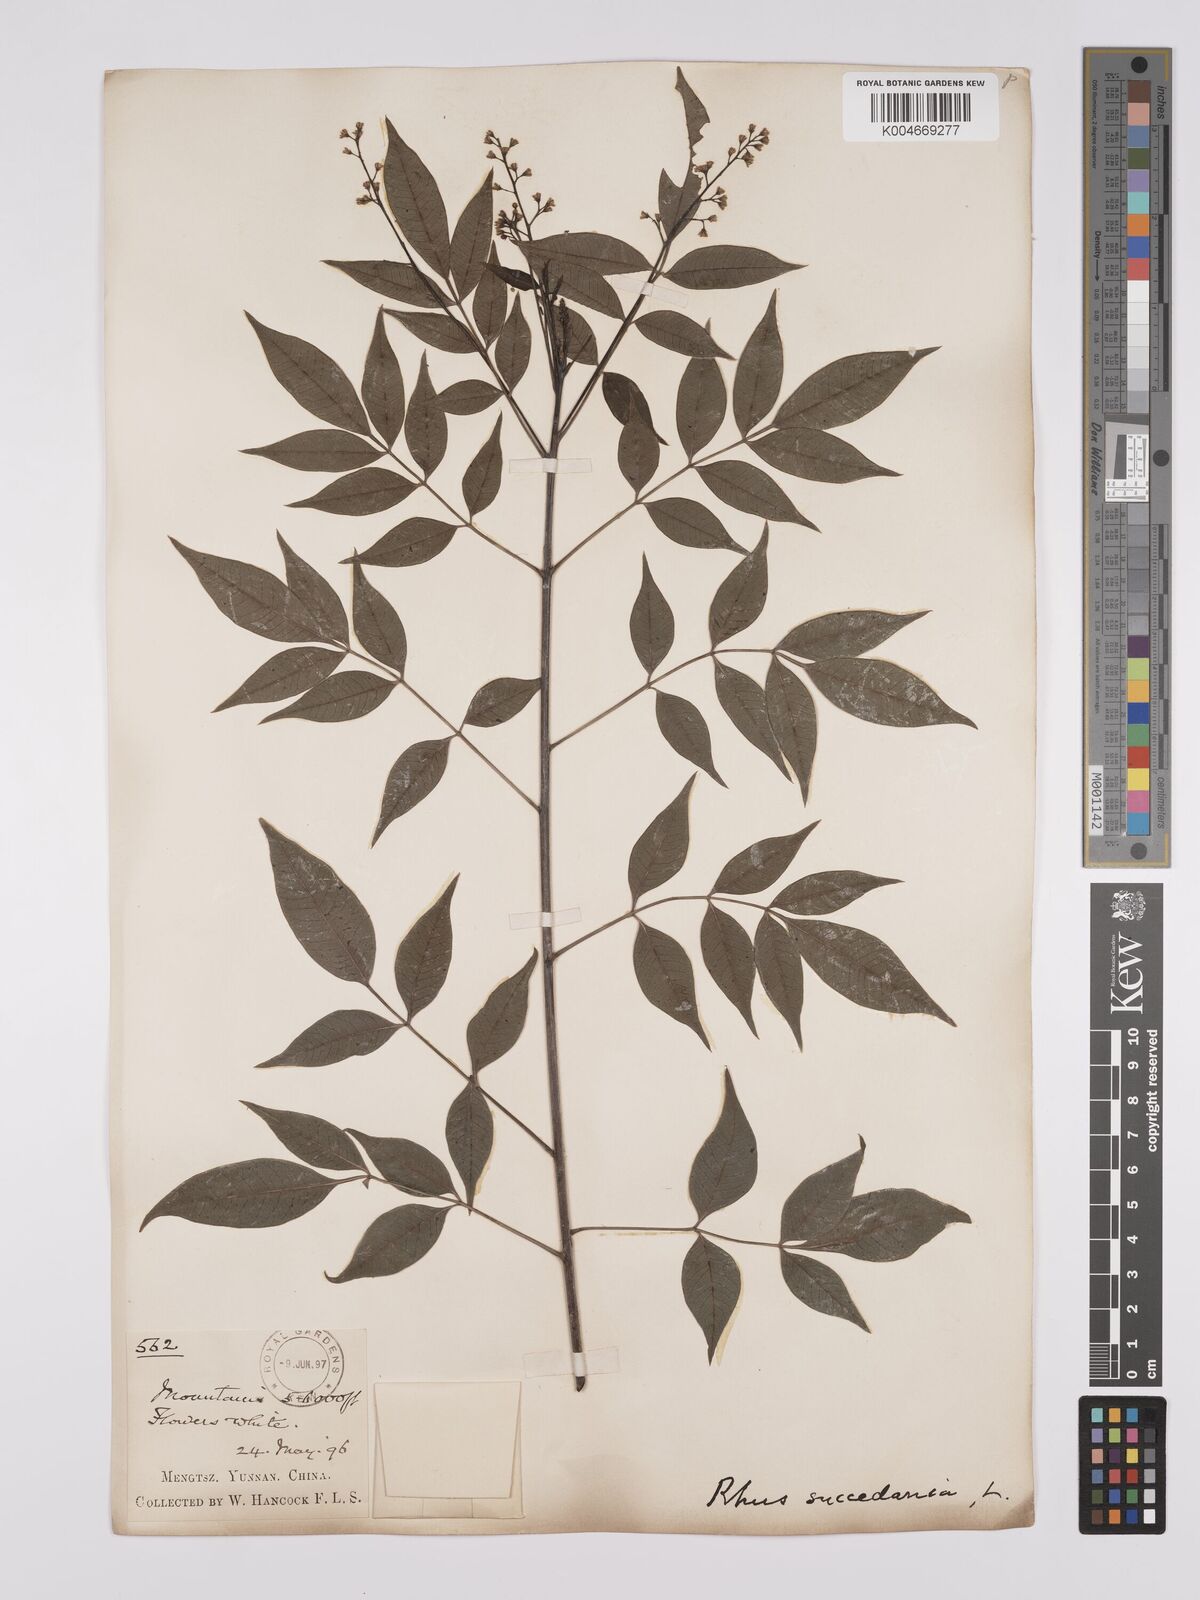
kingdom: Plantae
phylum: Tracheophyta
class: Magnoliopsida
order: Sapindales
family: Anacardiaceae
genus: Toxicodendron
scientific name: Toxicodendron succedaneum
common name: Wax tree
